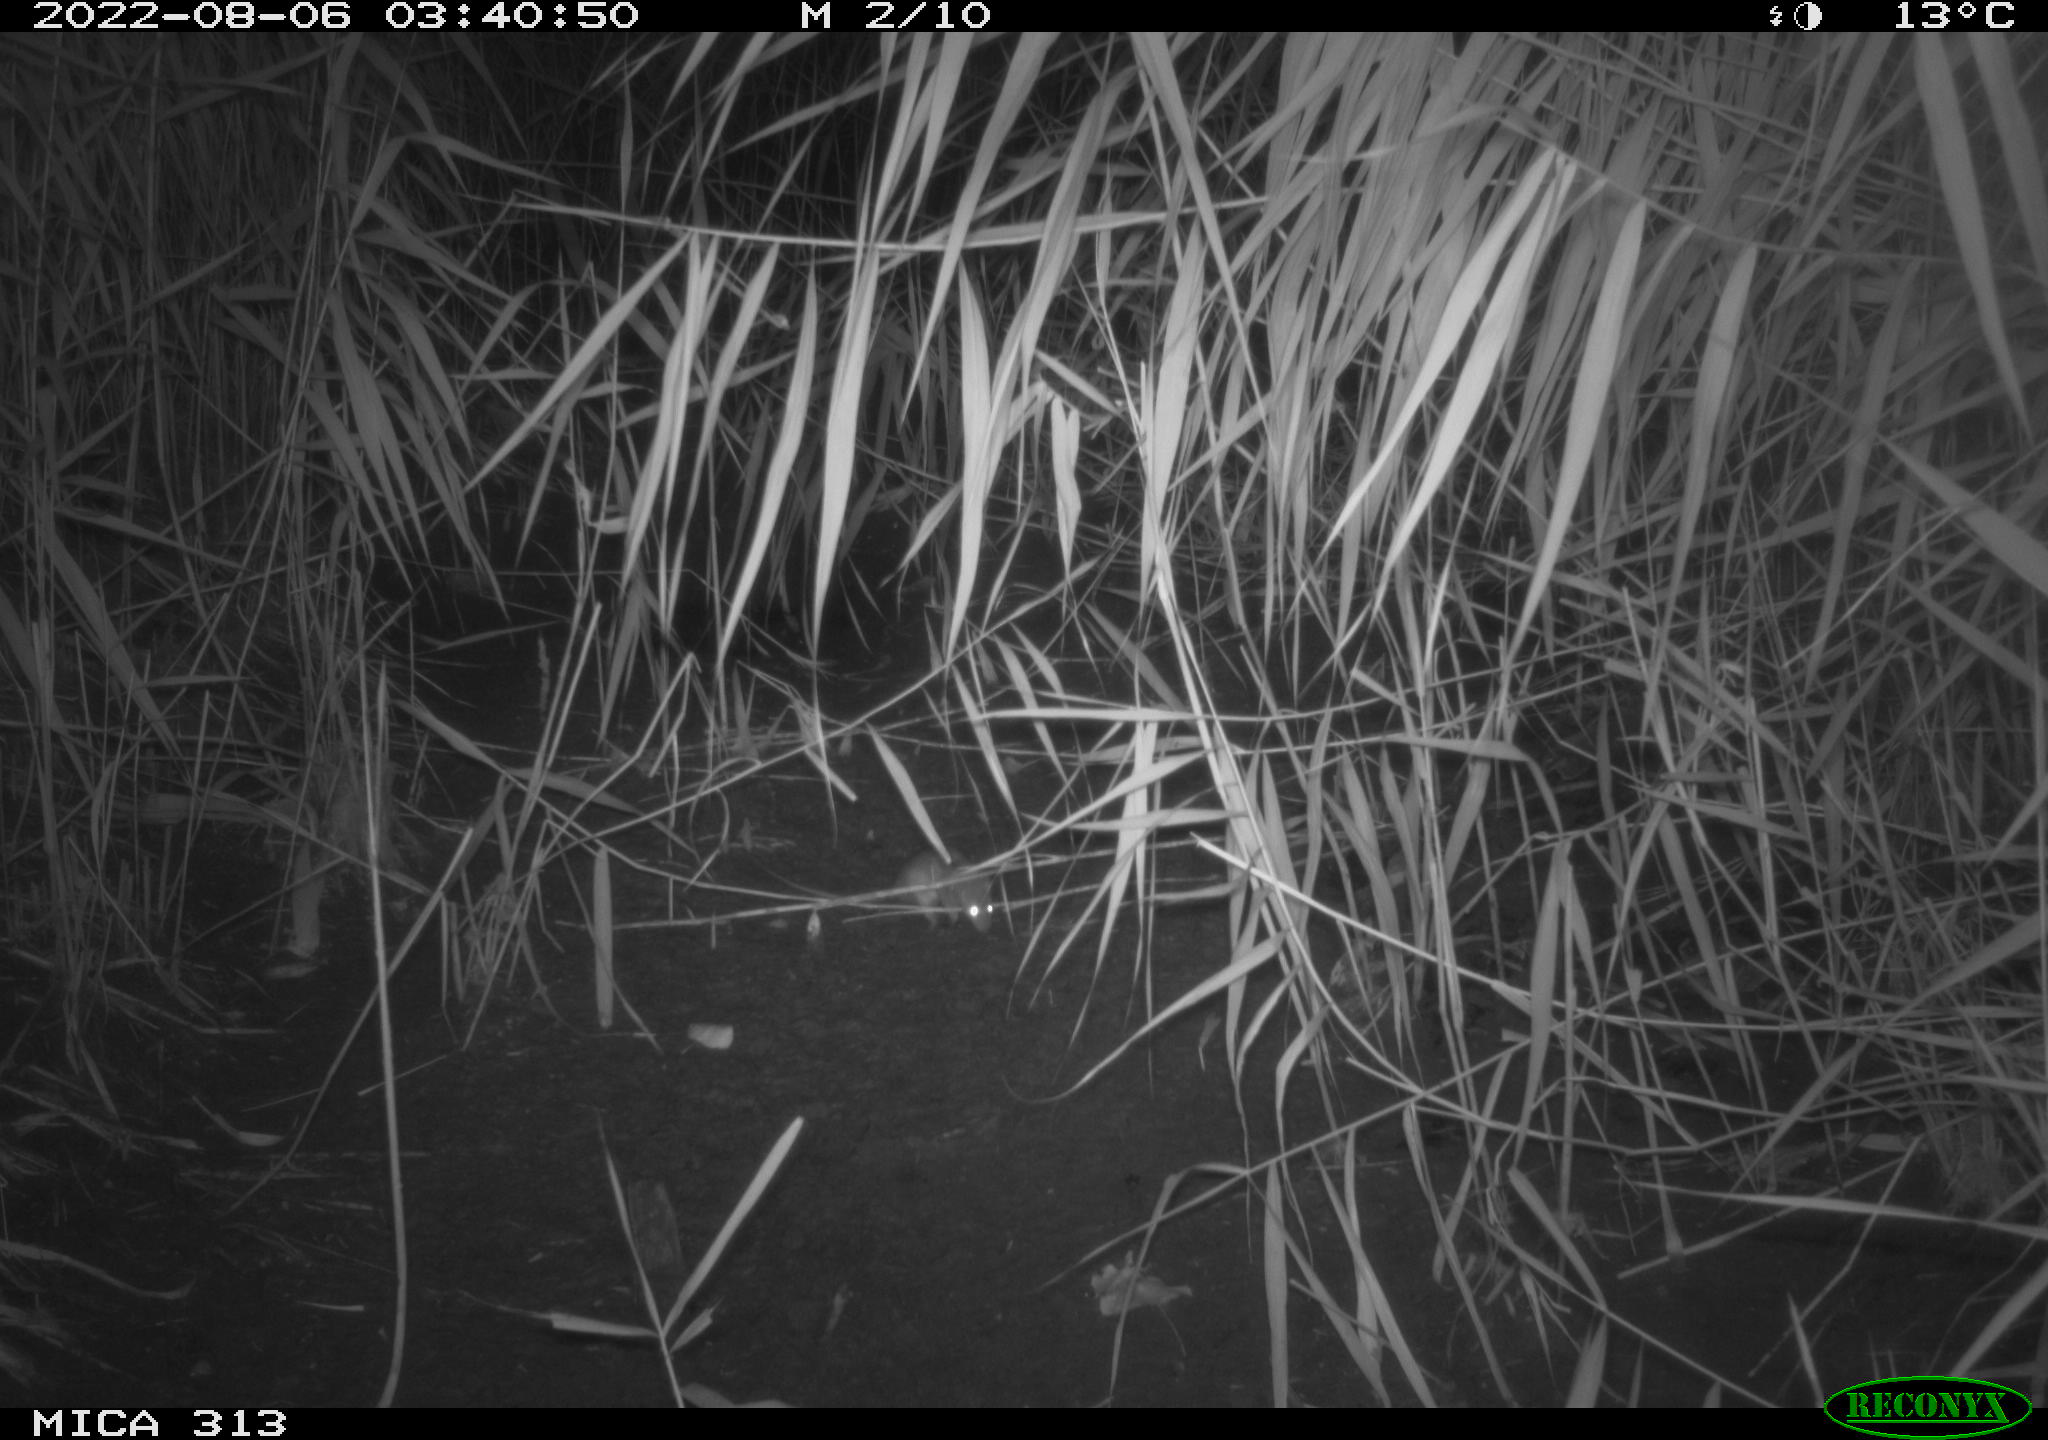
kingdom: Animalia
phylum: Chordata
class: Mammalia
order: Rodentia
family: Muridae
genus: Rattus
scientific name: Rattus norvegicus
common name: Brown rat
